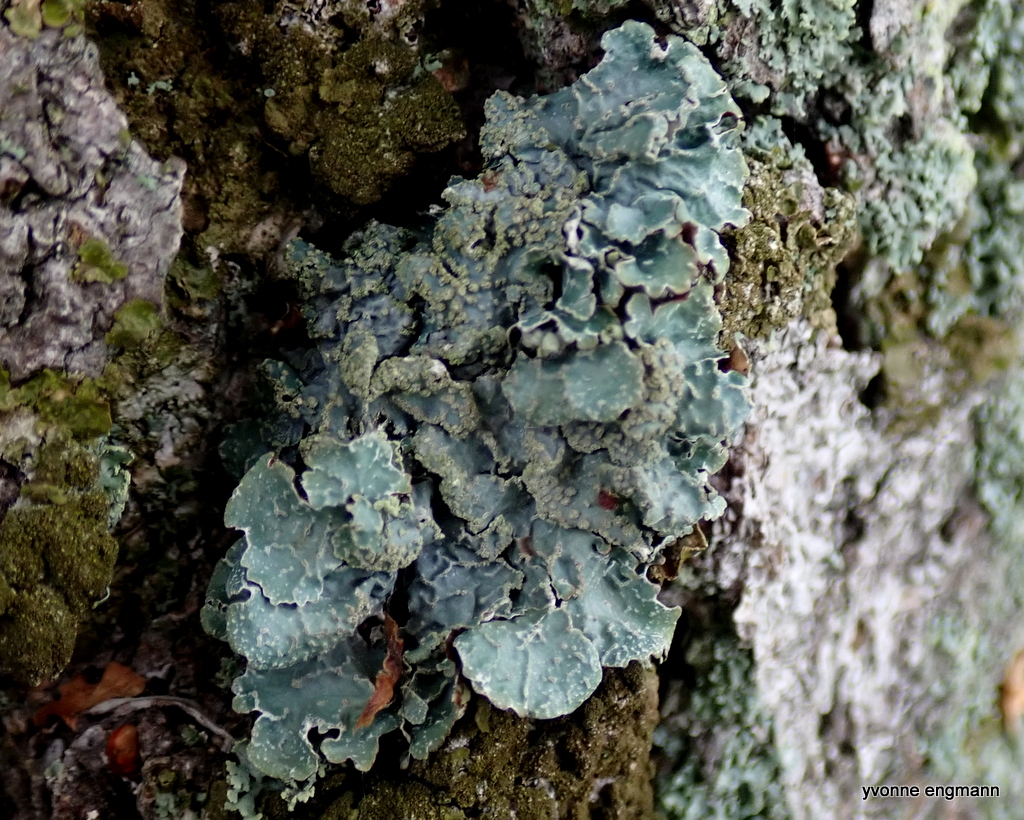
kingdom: Fungi
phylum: Ascomycota
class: Lecanoromycetes
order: Lecanorales
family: Parmeliaceae
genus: Parmelia
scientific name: Parmelia sulcata
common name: rynket skållav
